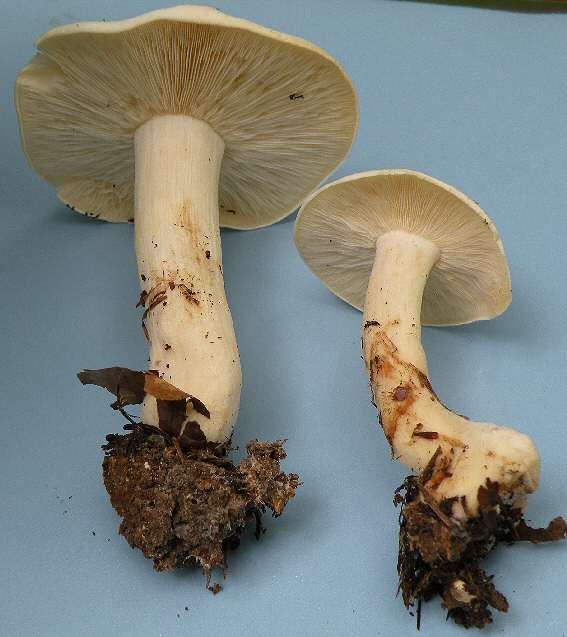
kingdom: Fungi
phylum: Basidiomycota
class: Agaricomycetes
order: Agaricales
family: Lyophyllaceae
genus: Calocybe
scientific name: Calocybe gambosa
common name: vårmusseron
